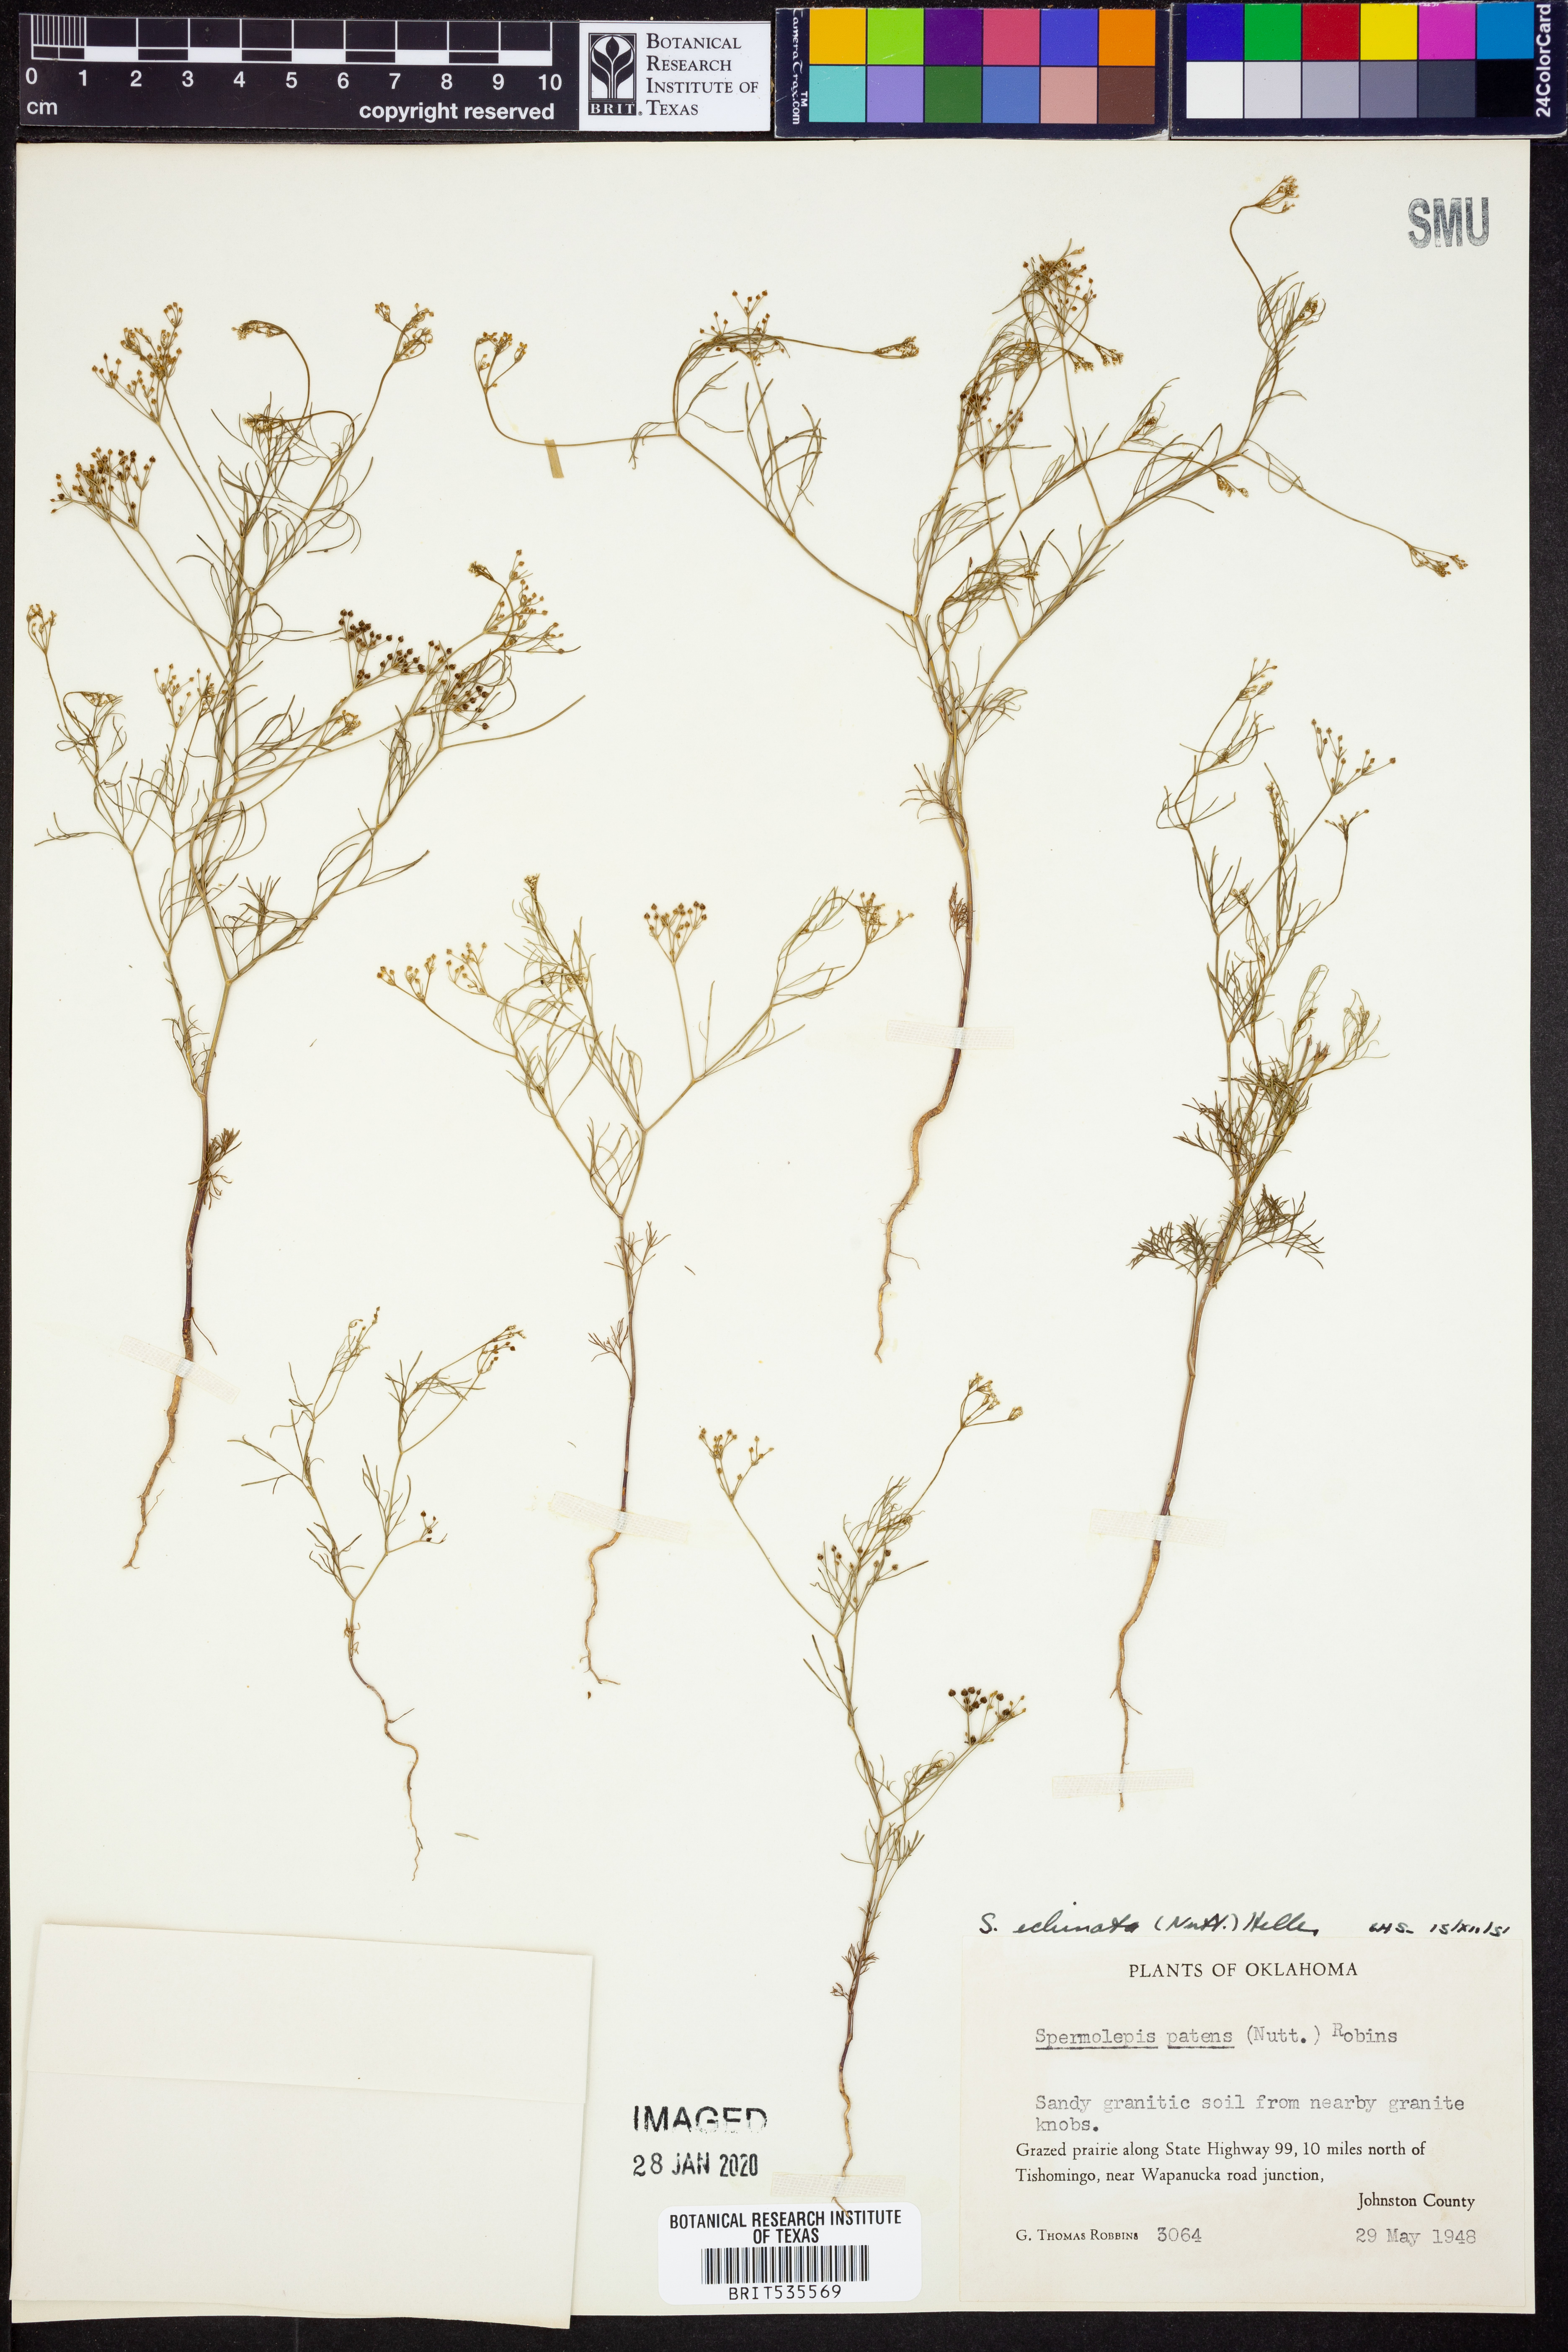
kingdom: Plantae
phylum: Tracheophyta
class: Magnoliopsida
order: Apiales
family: Apiaceae
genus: Spermolepis
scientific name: Spermolepis echinata
